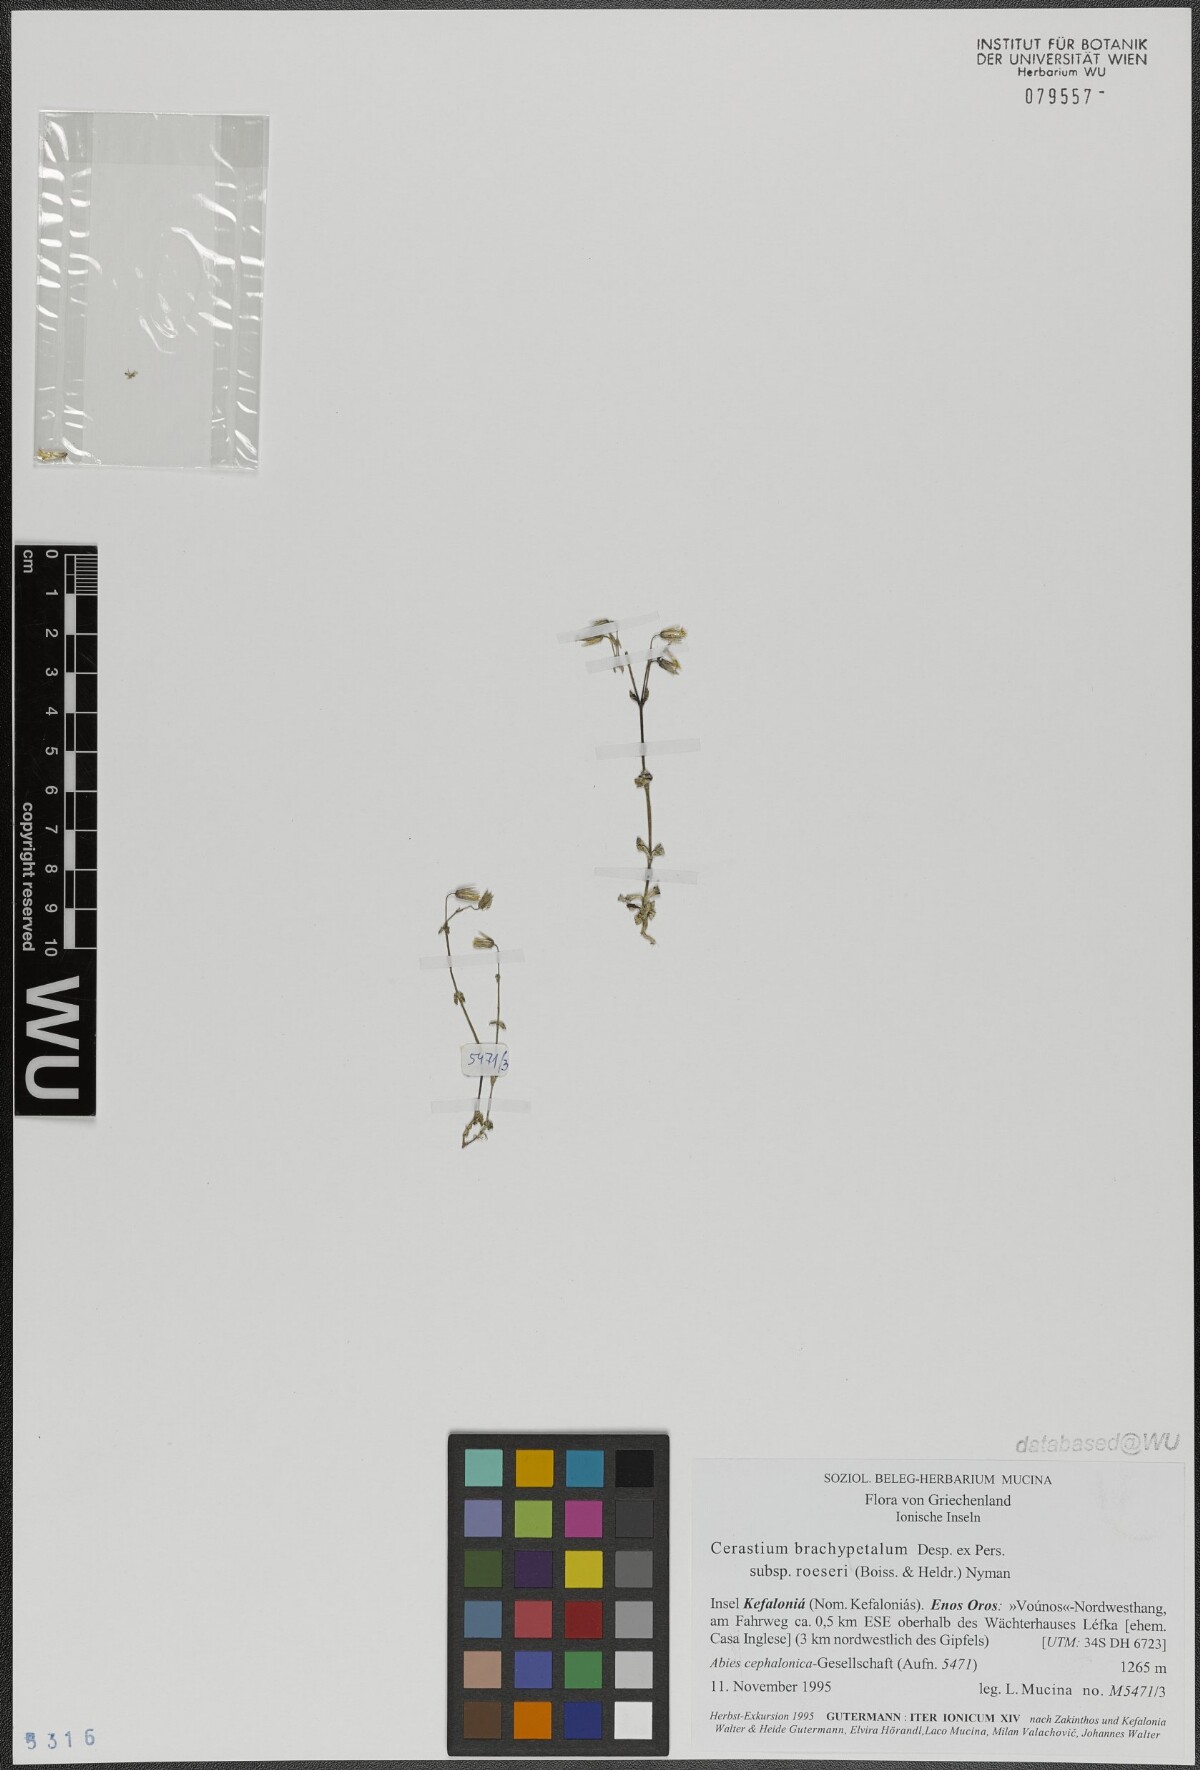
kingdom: Plantae
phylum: Tracheophyta
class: Magnoliopsida
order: Caryophyllales
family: Caryophyllaceae
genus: Cerastium
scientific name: Cerastium brachypetalum
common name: Grey mouse-ear
